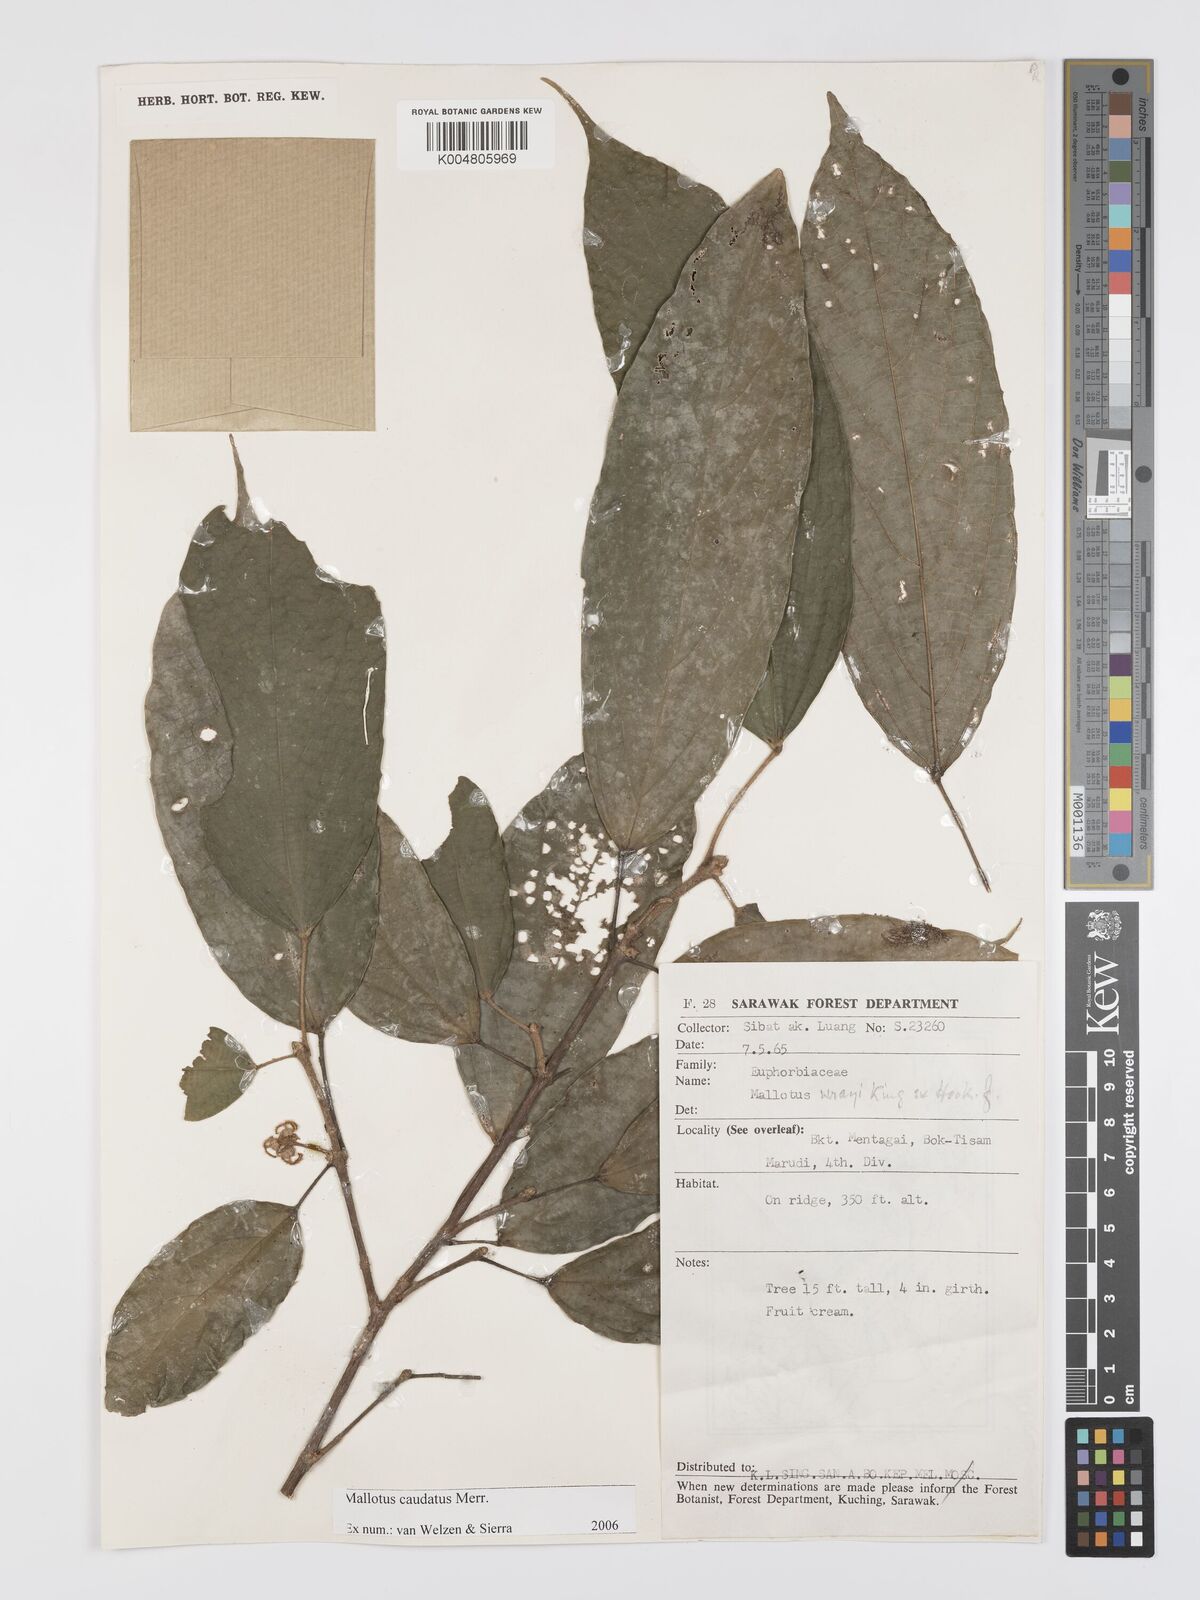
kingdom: Plantae
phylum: Tracheophyta
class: Magnoliopsida
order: Malpighiales
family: Euphorbiaceae
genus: Mallotus
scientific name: Mallotus caudatus
